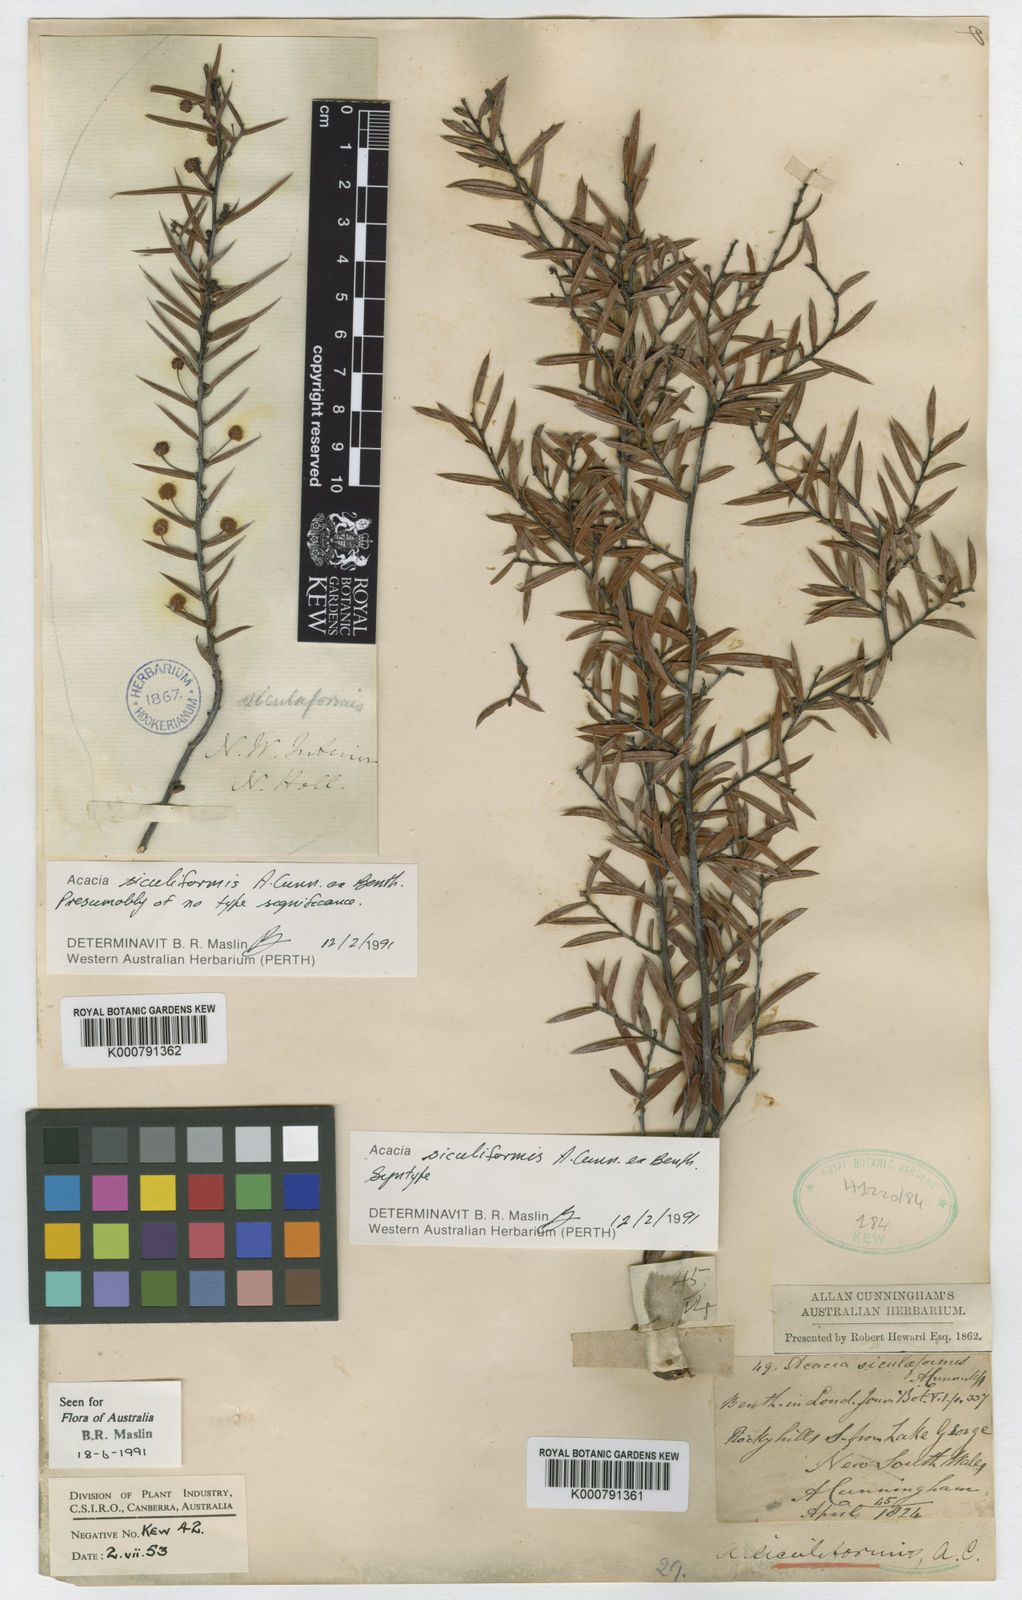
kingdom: Plantae
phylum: Tracheophyta
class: Magnoliopsida
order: Fabales
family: Fabaceae
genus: Acacia
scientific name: Acacia siculiformis
